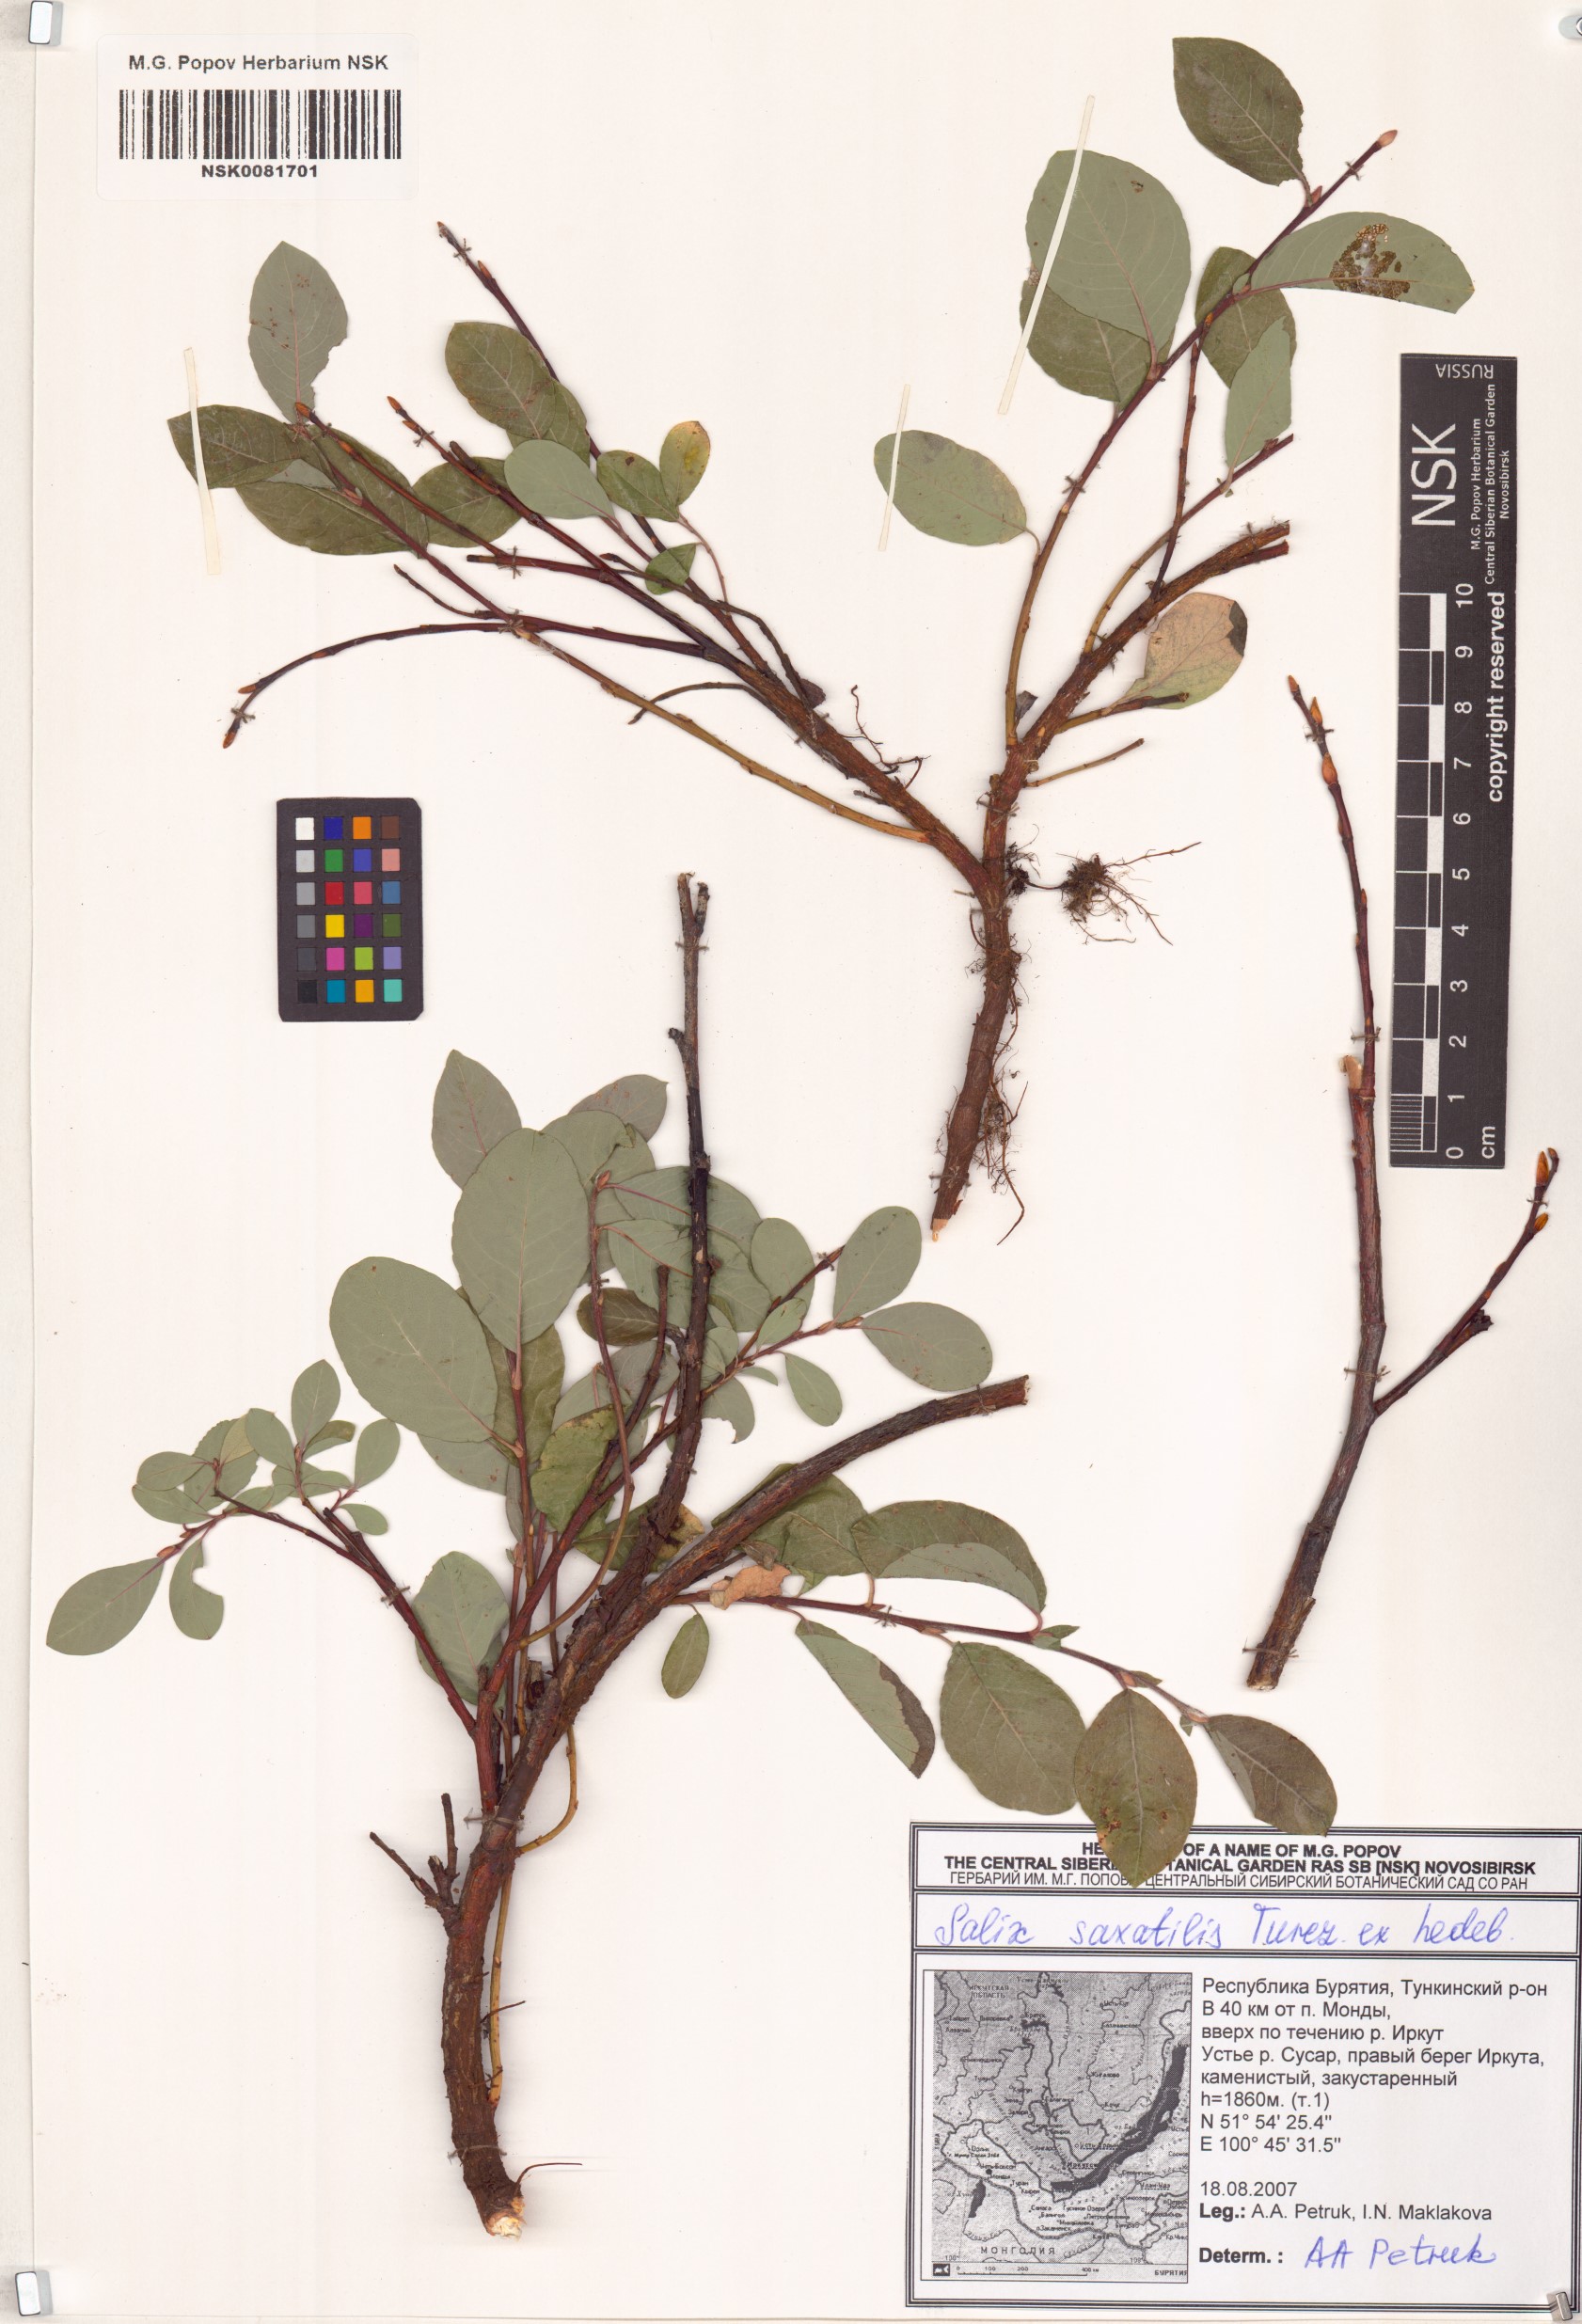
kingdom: Plantae
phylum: Tracheophyta
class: Magnoliopsida
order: Malpighiales
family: Salicaceae
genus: Salix
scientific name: Salix saxatilis
